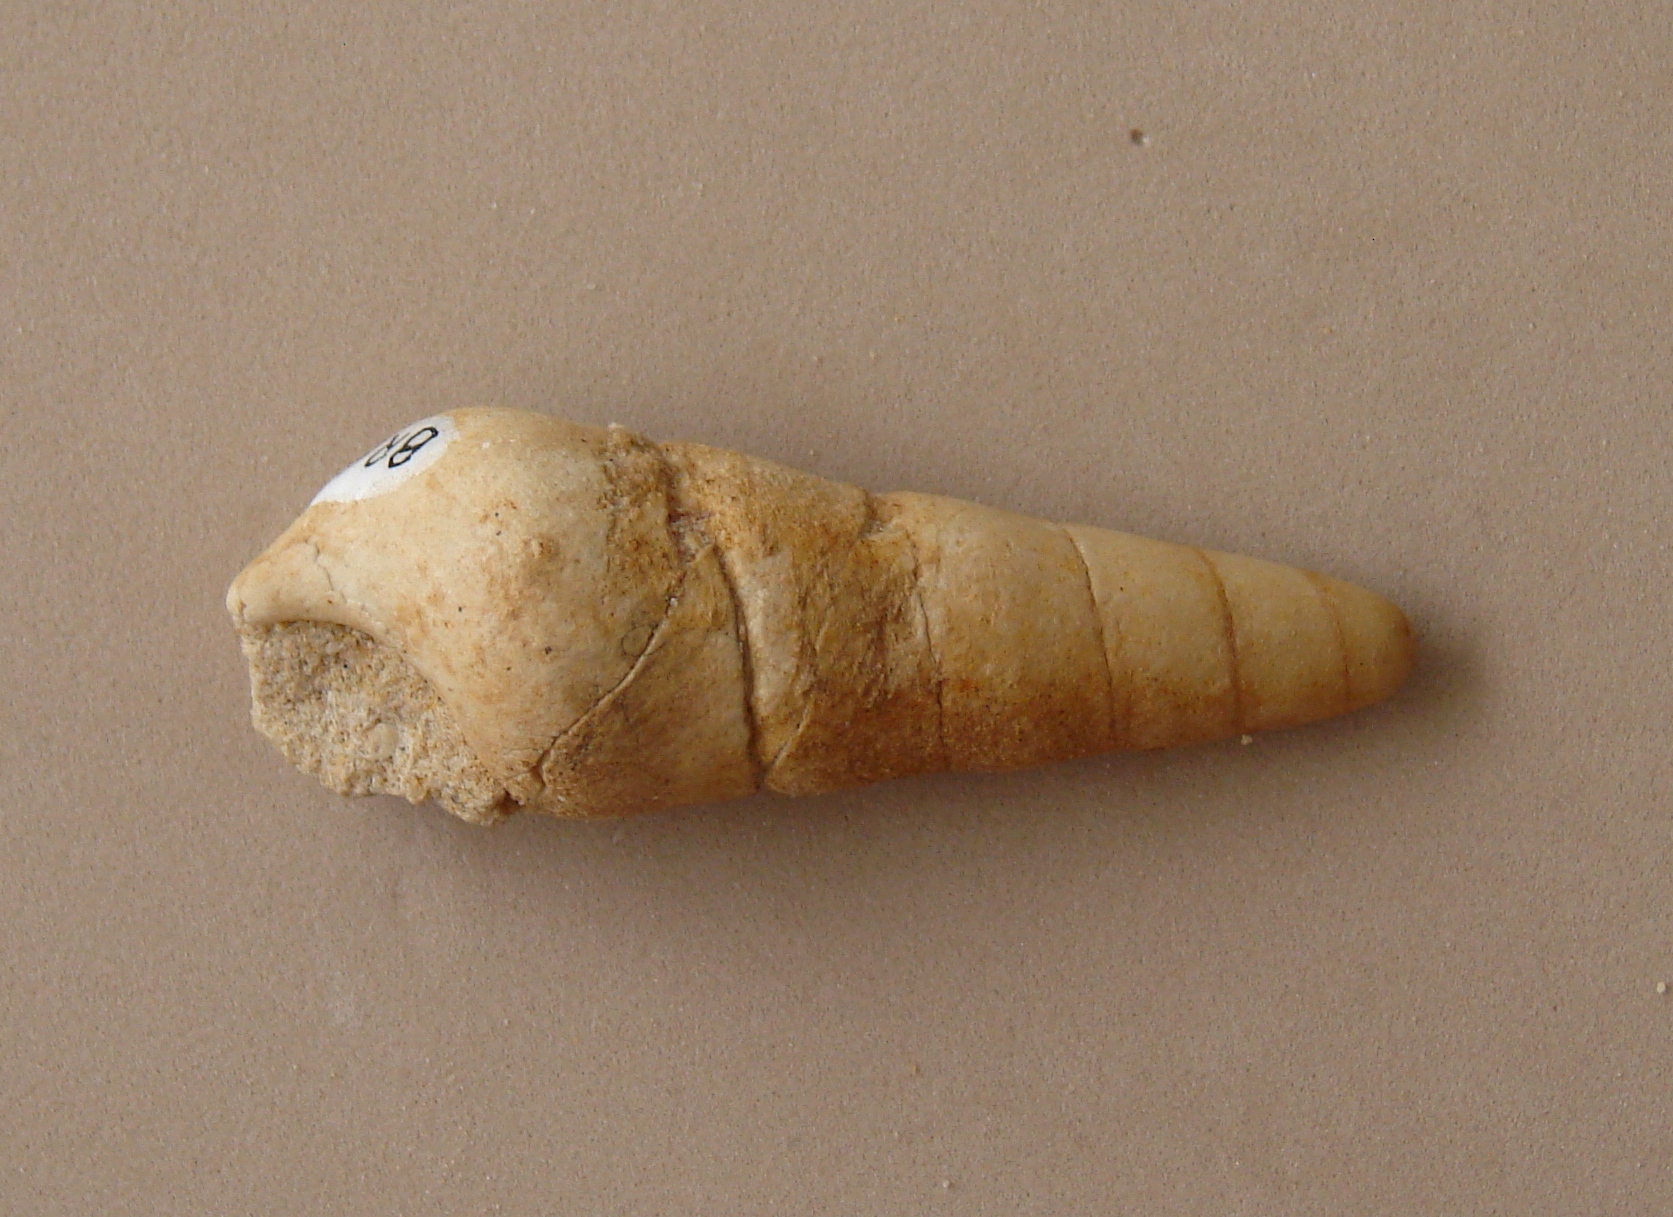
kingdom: Animalia
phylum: Mollusca
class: Gastropoda
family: Pseudomelaniidae
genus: Bourgetia
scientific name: Bourgetia Turritella deshayesea
